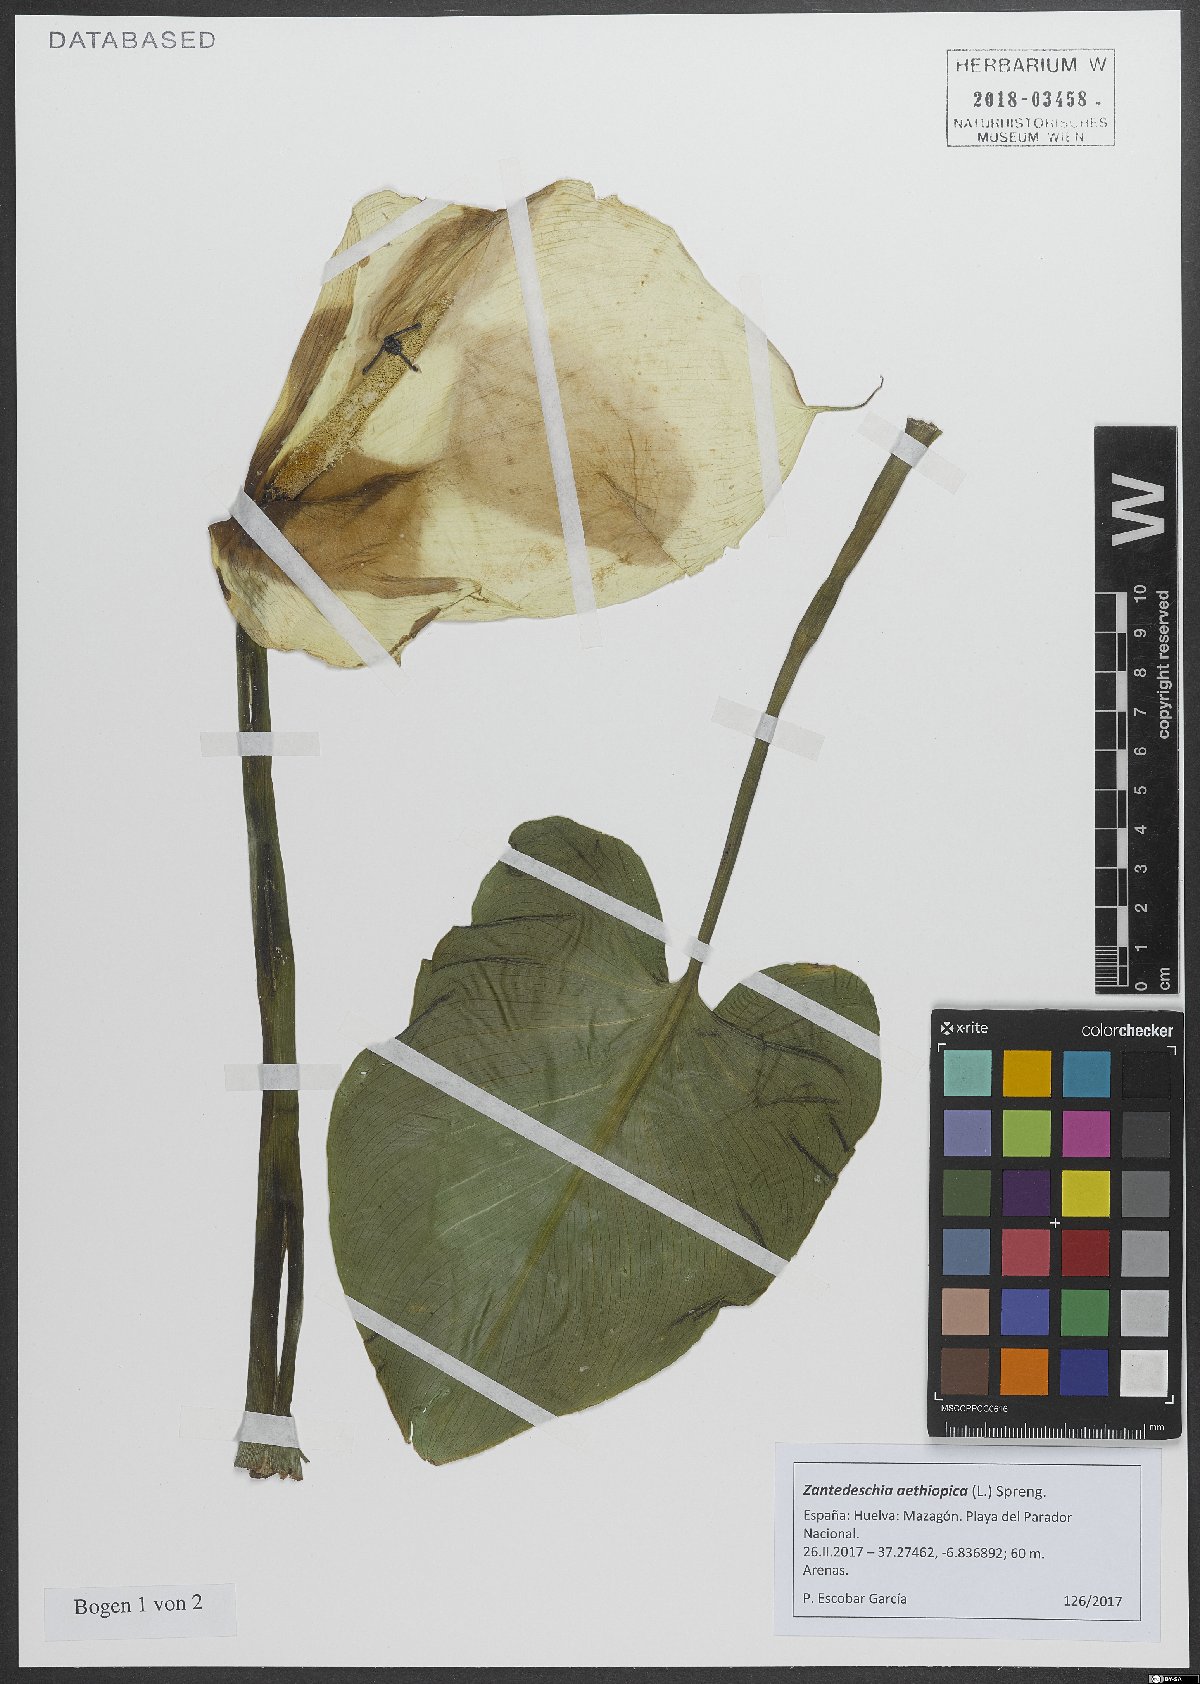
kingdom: Plantae
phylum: Tracheophyta
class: Liliopsida
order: Alismatales
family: Araceae
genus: Zantedeschia
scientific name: Zantedeschia aethiopica
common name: Altar-lily
